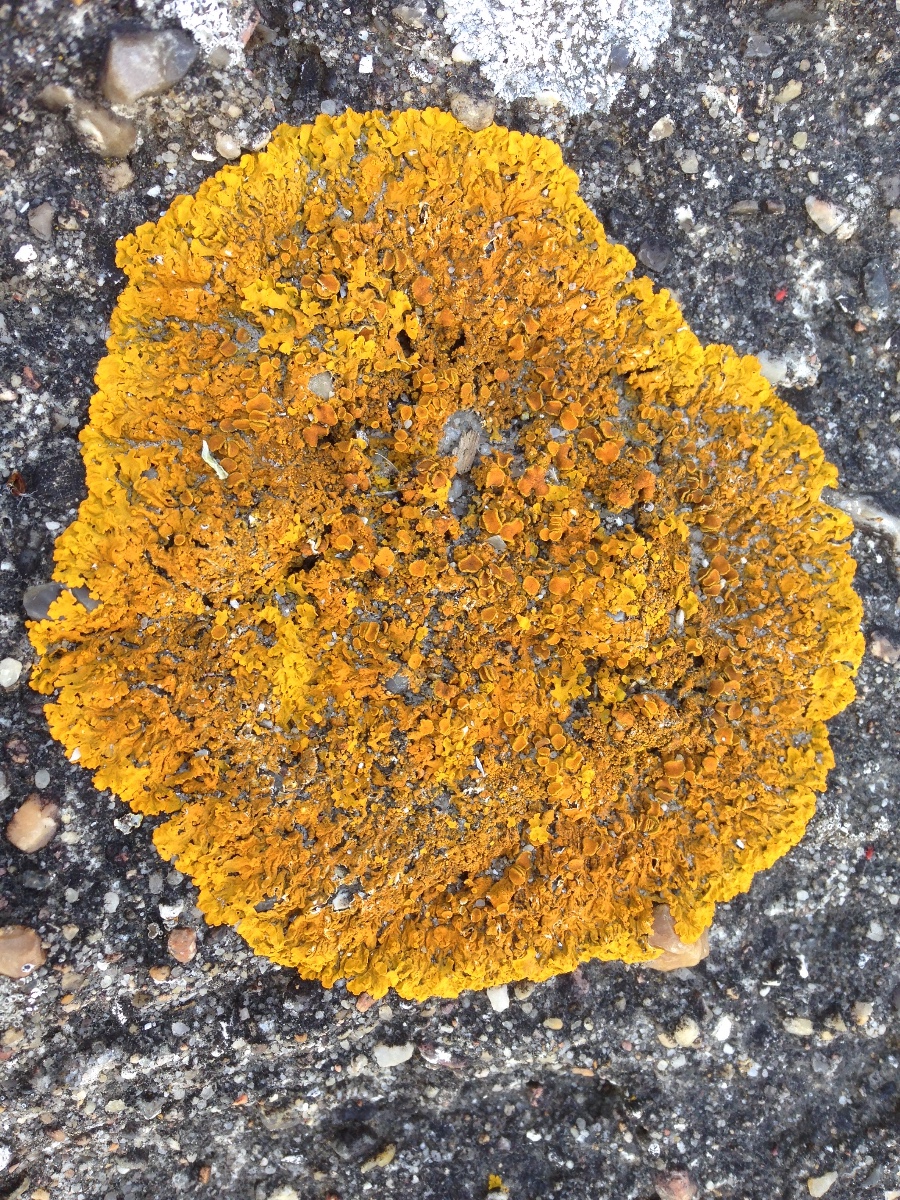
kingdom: Fungi
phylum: Ascomycota
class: Lecanoromycetes
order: Teloschistales
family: Teloschistaceae
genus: Xanthoria
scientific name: Xanthoria parietina
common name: almindelig væggelav
